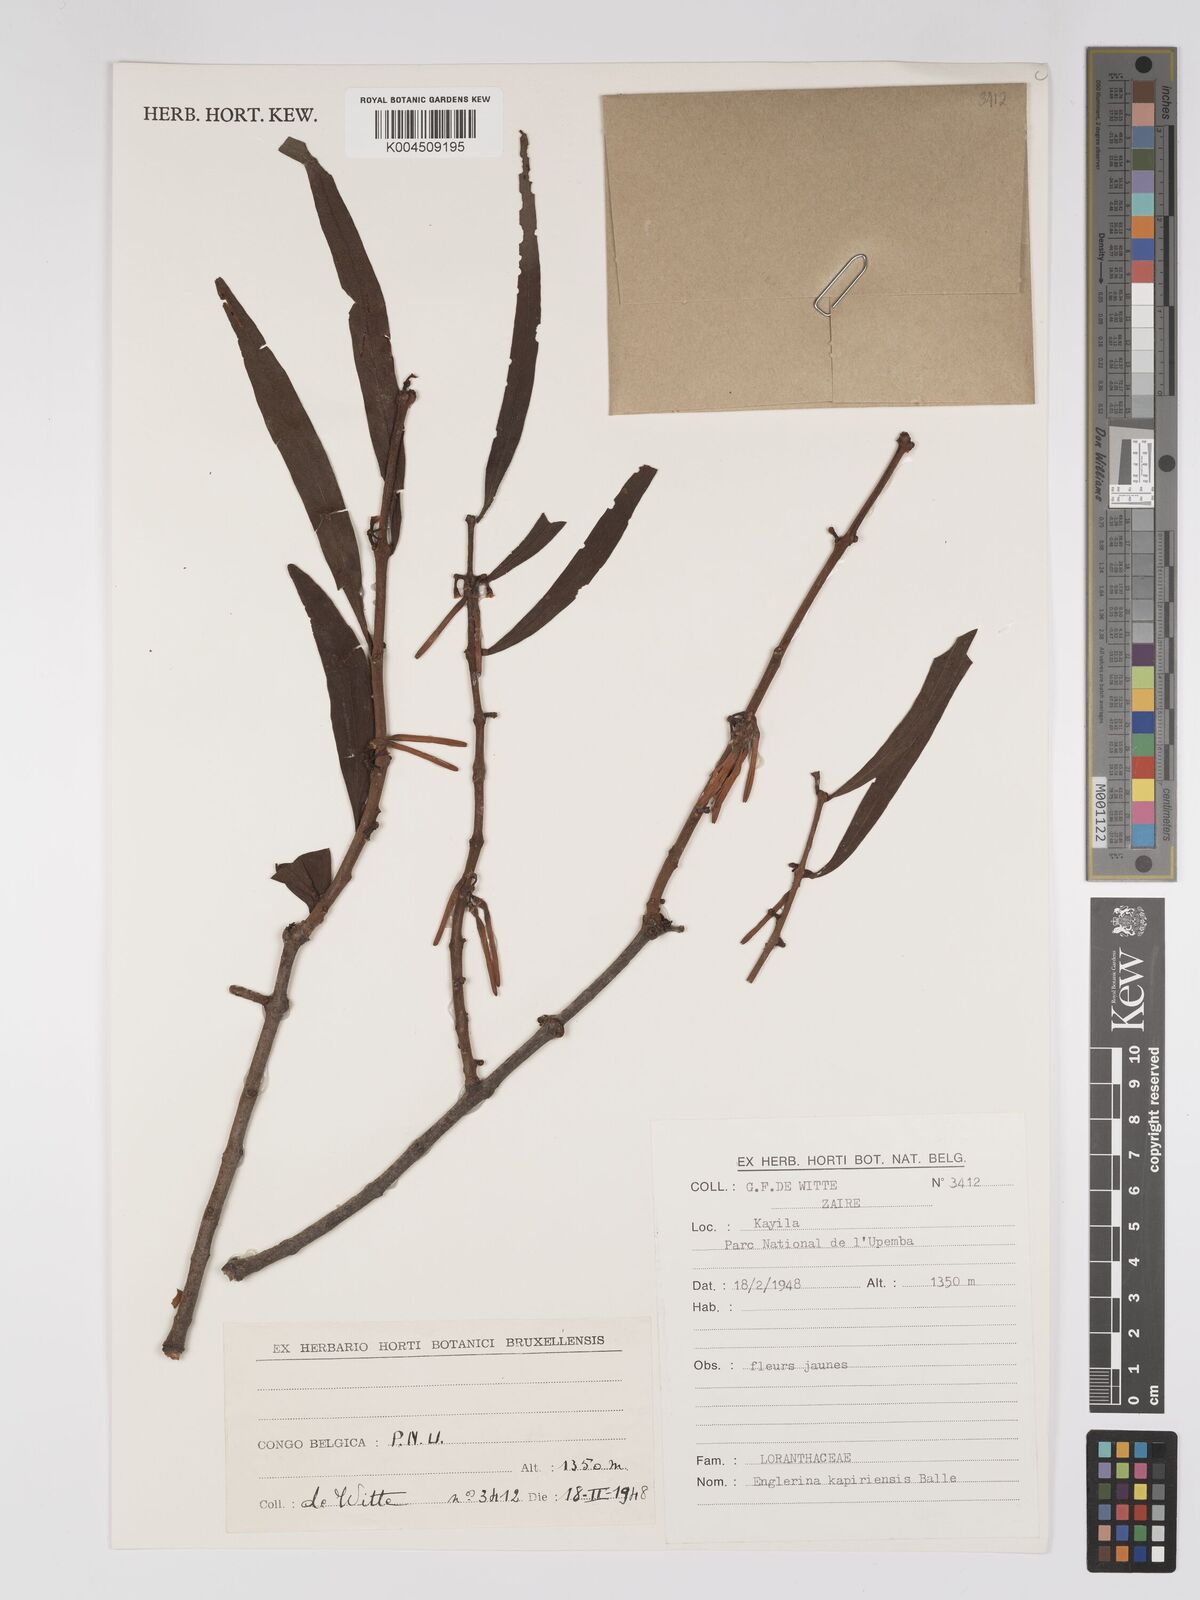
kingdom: Plantae
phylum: Tracheophyta
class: Magnoliopsida
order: Santalales
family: Loranthaceae
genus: Englerina
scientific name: Englerina kapiriensis
